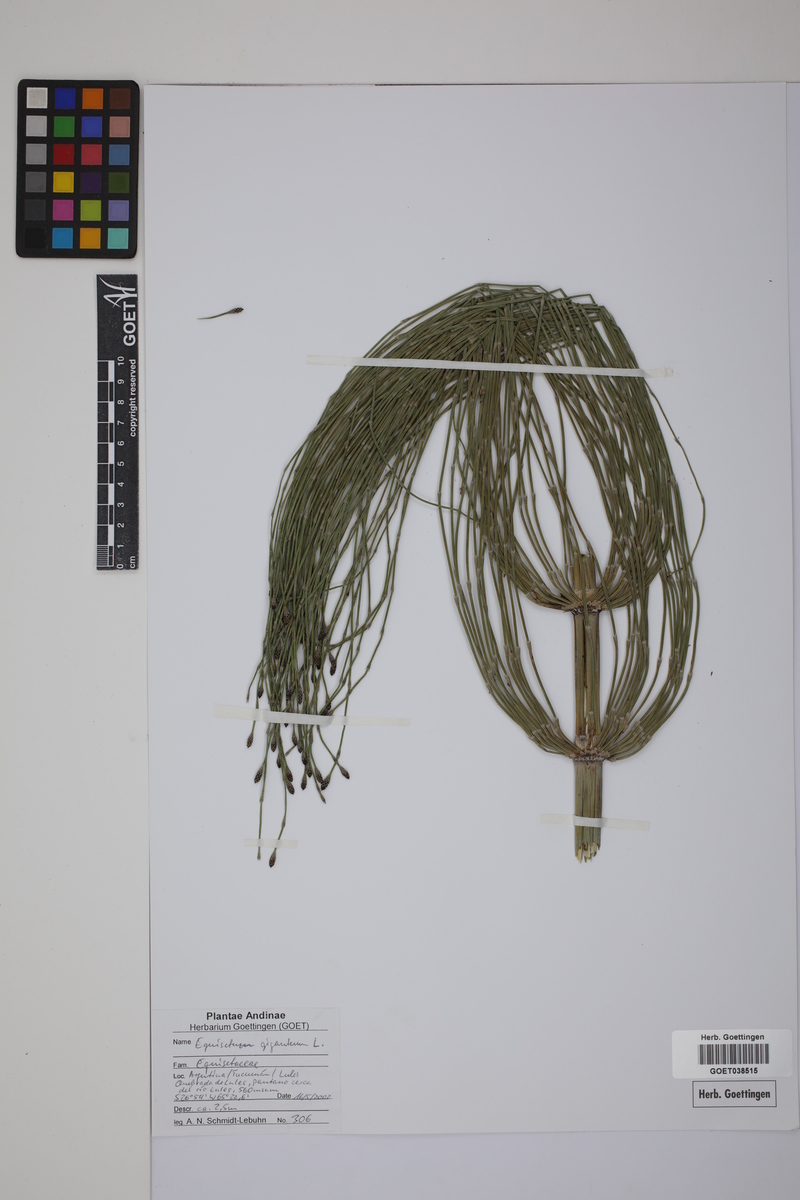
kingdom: Plantae
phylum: Tracheophyta
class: Polypodiopsida
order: Equisetales
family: Equisetaceae
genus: Equisetum
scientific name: Equisetum giganteum
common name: Giant horsetail
